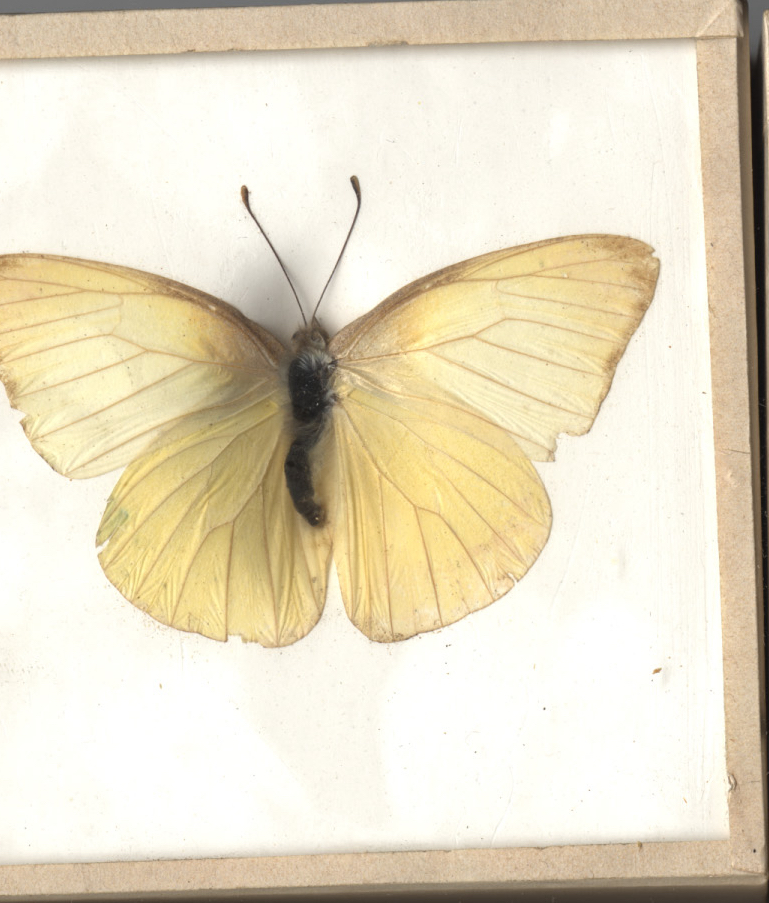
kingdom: Animalia
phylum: Arthropoda
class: Insecta
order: Lepidoptera
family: Pieridae
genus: Ascia
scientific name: Ascia monuste
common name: Great Southern White
